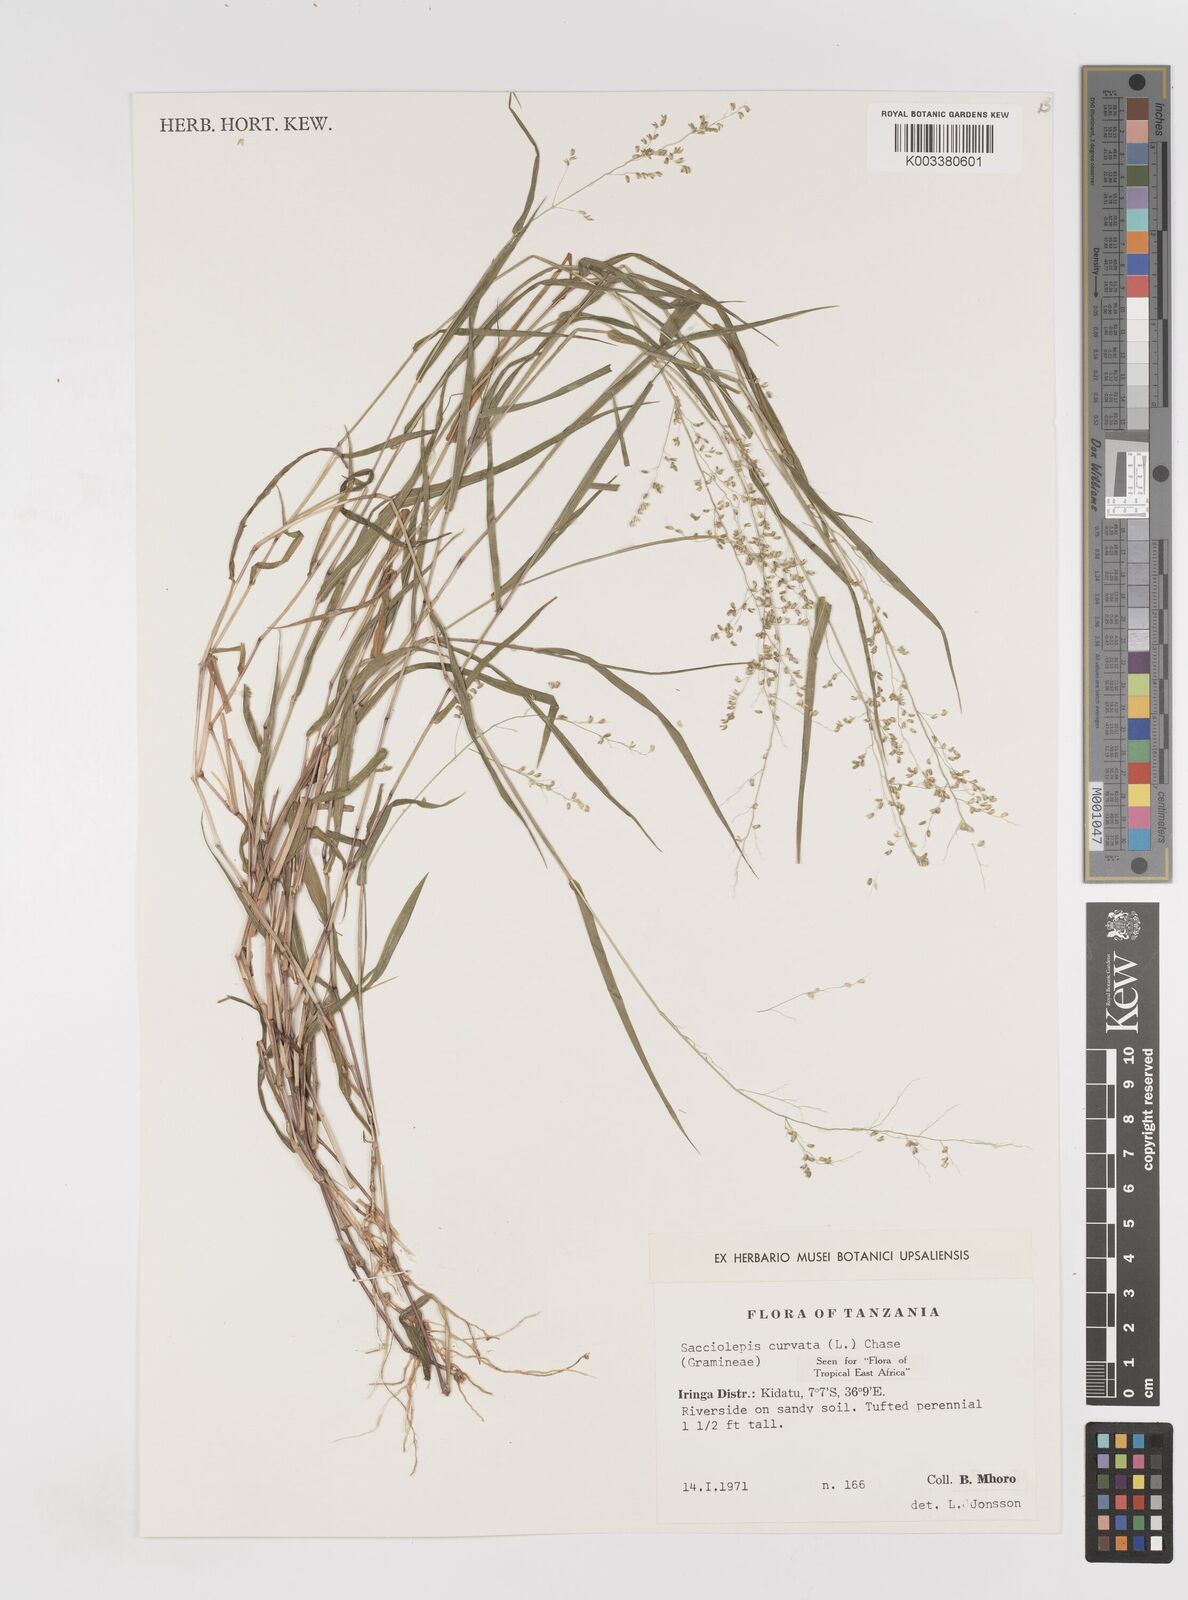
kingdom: Plantae
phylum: Tracheophyta
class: Liliopsida
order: Poales
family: Poaceae
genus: Sacciolepis
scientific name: Sacciolepis curvata
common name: Forest hood grass
